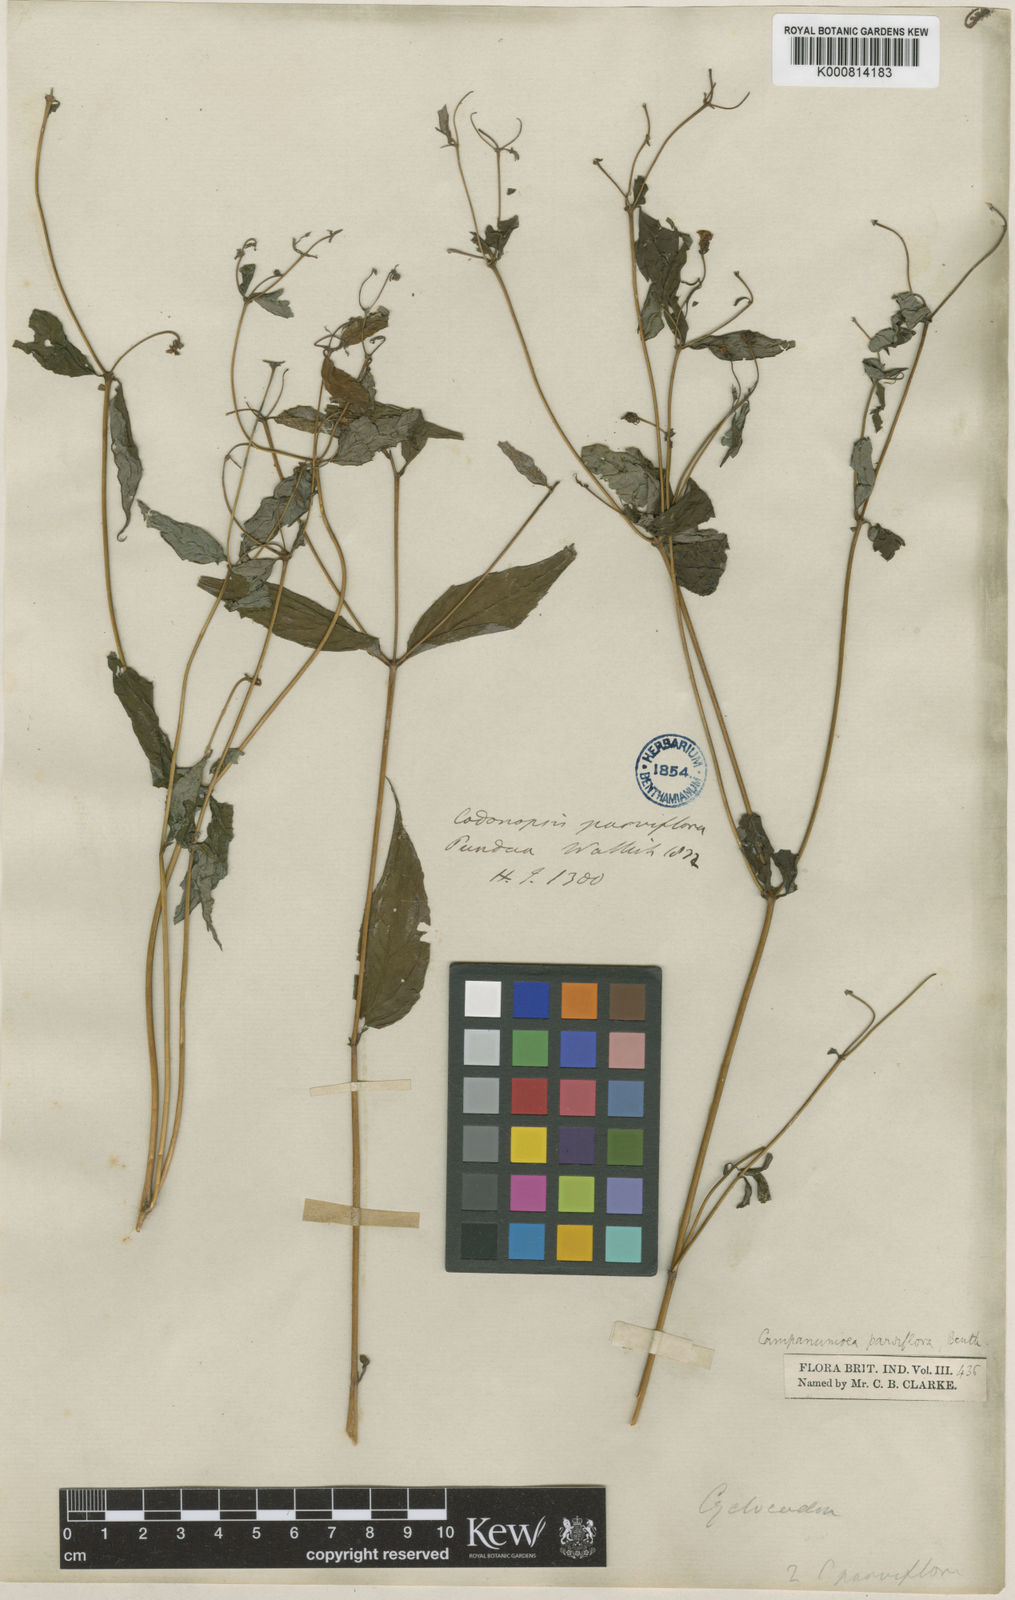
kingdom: Plantae
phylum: Tracheophyta
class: Magnoliopsida
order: Asterales
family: Campanulaceae
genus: Cyclocodon
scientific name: Cyclocodon parviflorus
